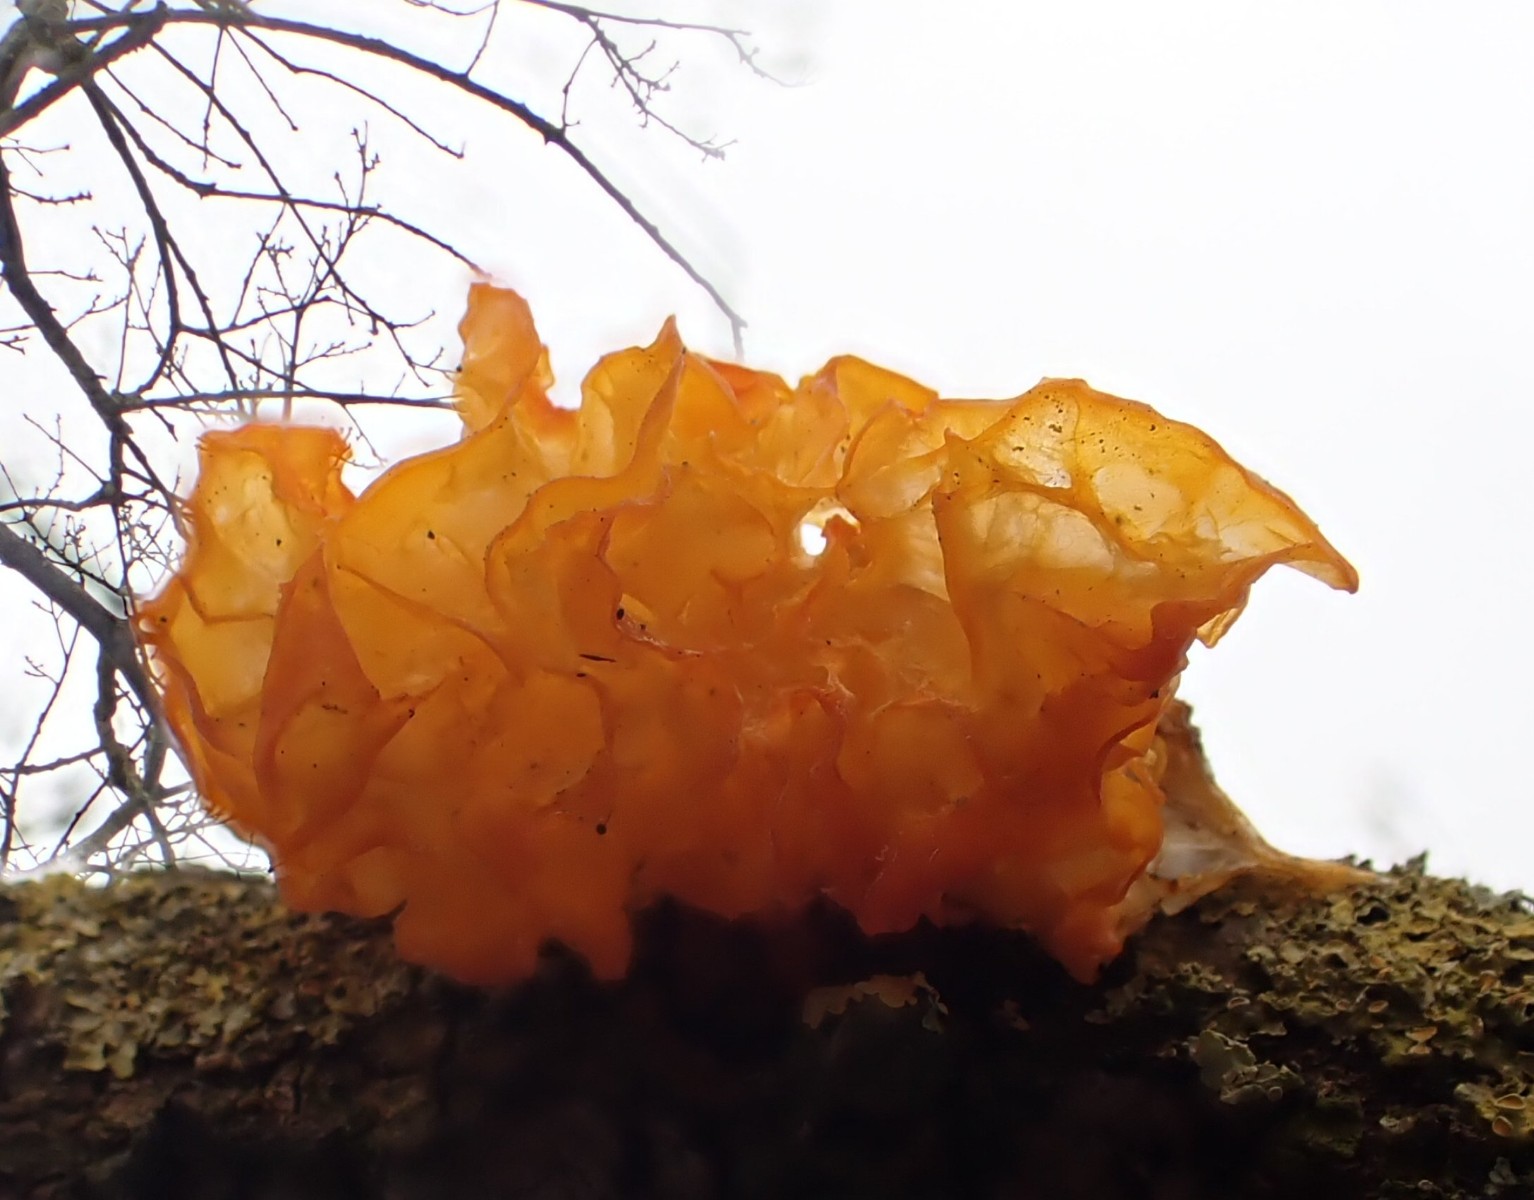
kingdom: Fungi
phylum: Basidiomycota
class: Tremellomycetes
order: Tremellales
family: Tremellaceae
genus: Tremella
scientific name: Tremella mesenterica
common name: gul bævresvamp
